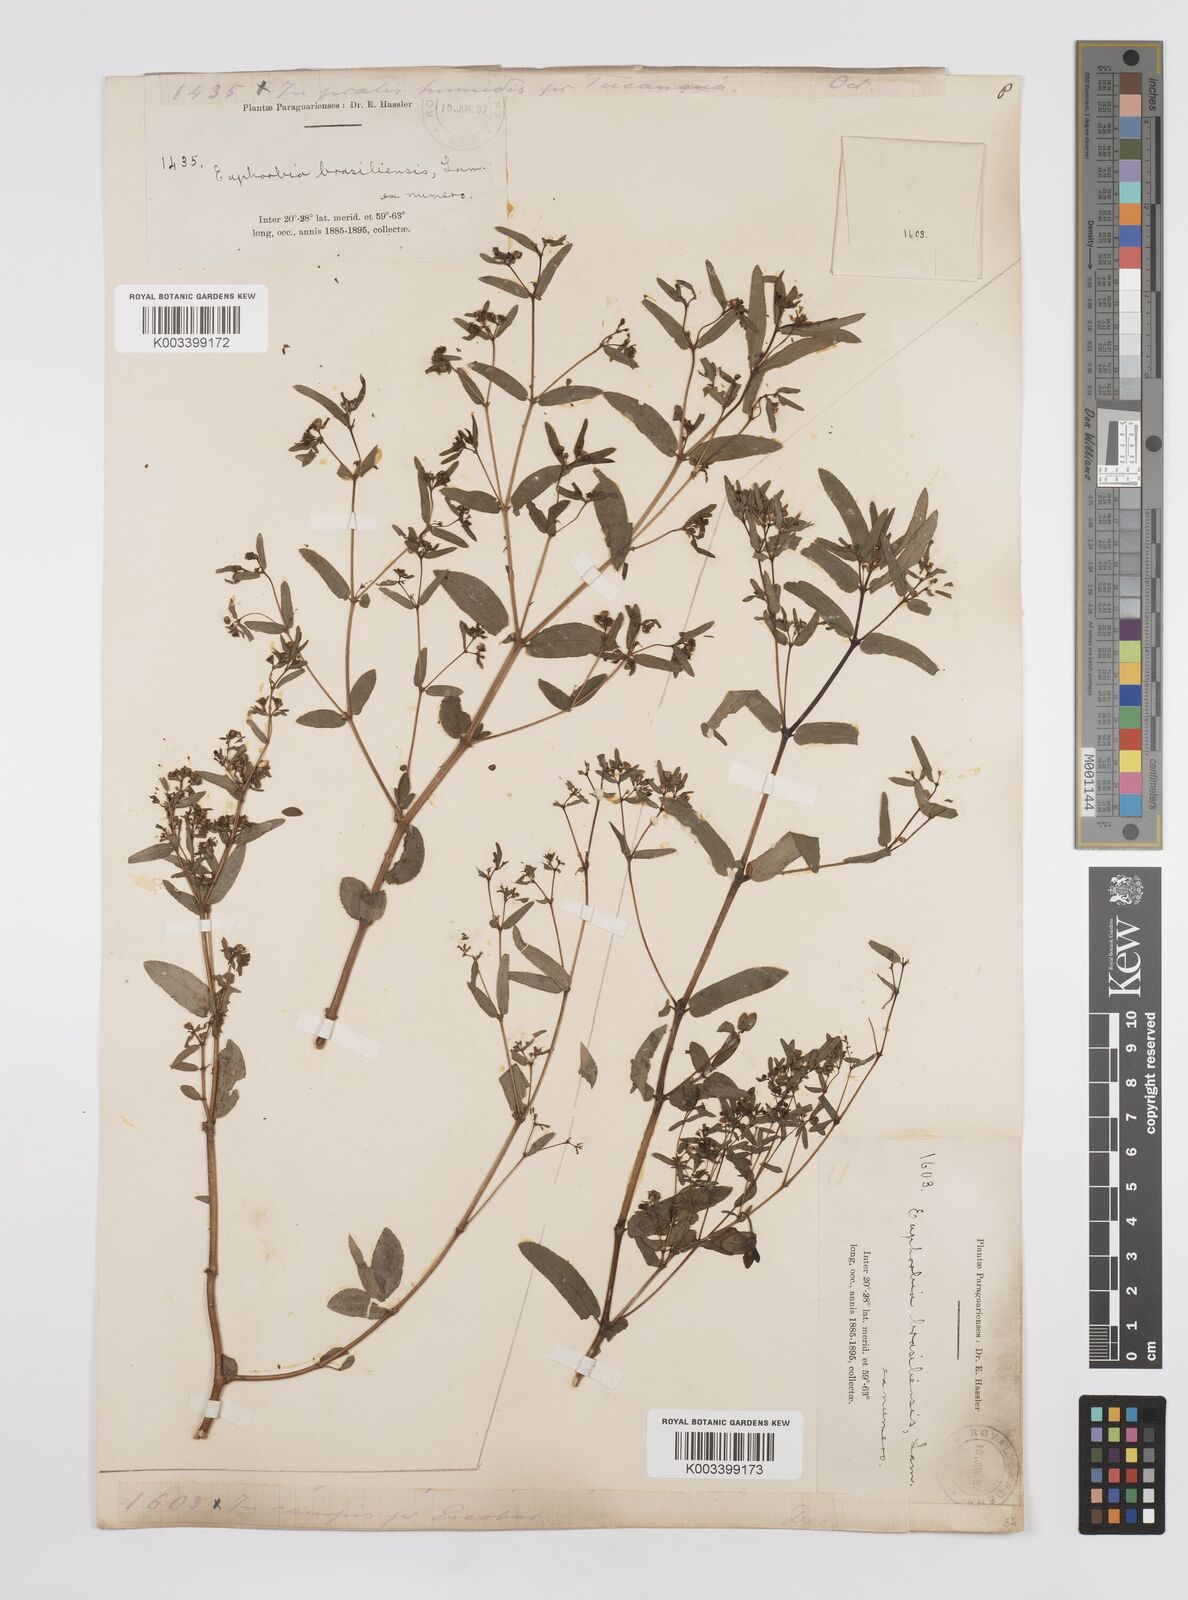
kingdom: Plantae
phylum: Tracheophyta
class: Magnoliopsida
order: Malpighiales
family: Euphorbiaceae
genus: Euphorbia
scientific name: Euphorbia hyssopifolia
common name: Hyssopleaf sandmat
